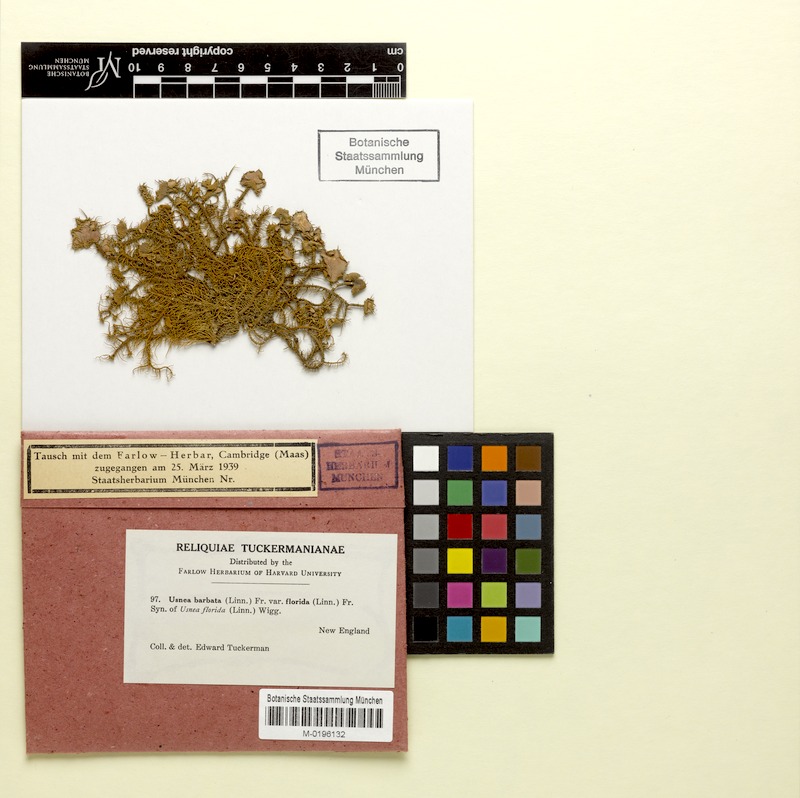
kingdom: Fungi
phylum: Ascomycota
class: Lecanoromycetes
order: Lecanorales
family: Parmeliaceae
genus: Usnea
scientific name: Usnea florida
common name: Witches' whiskers lichen
